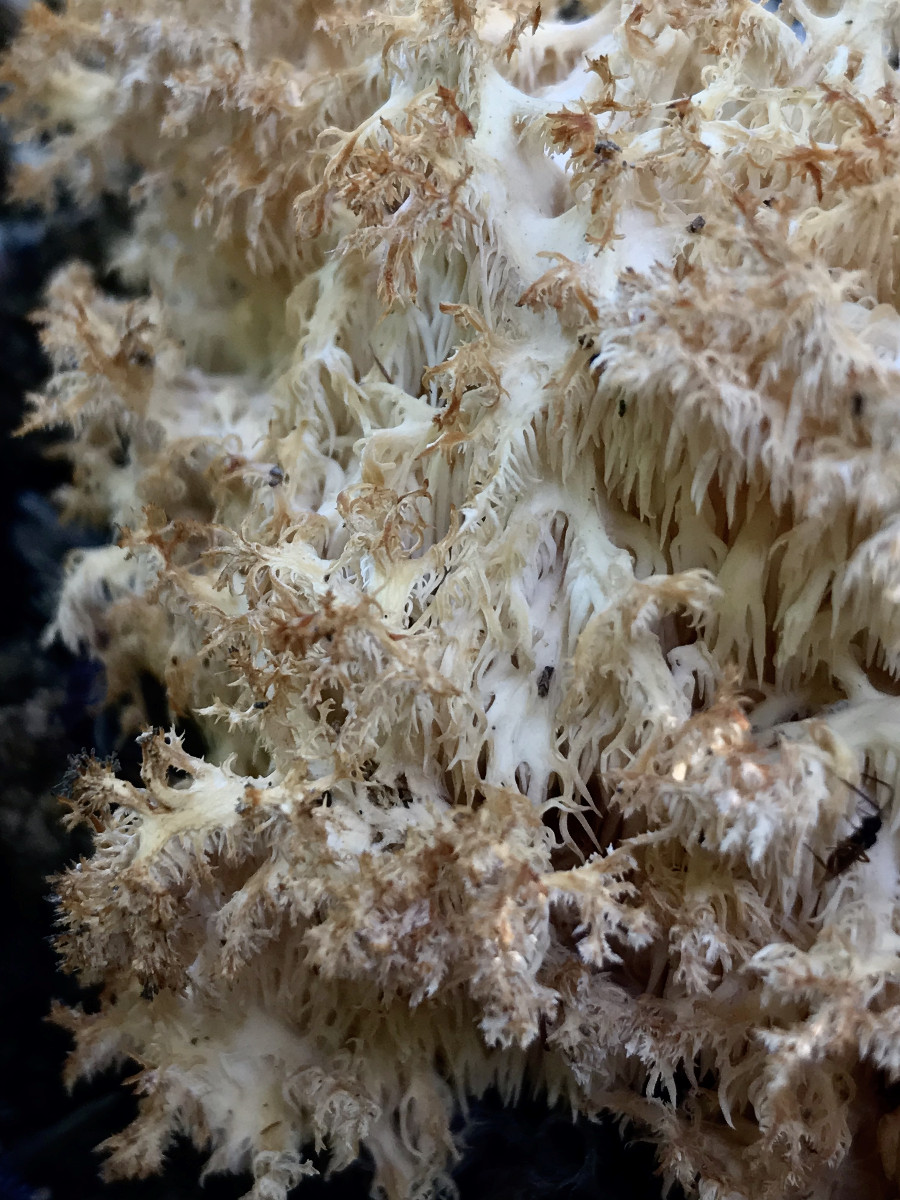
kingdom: Fungi
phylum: Basidiomycota
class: Agaricomycetes
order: Russulales
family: Hericiaceae
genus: Hericium
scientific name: Hericium coralloides
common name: koralpigsvamp
